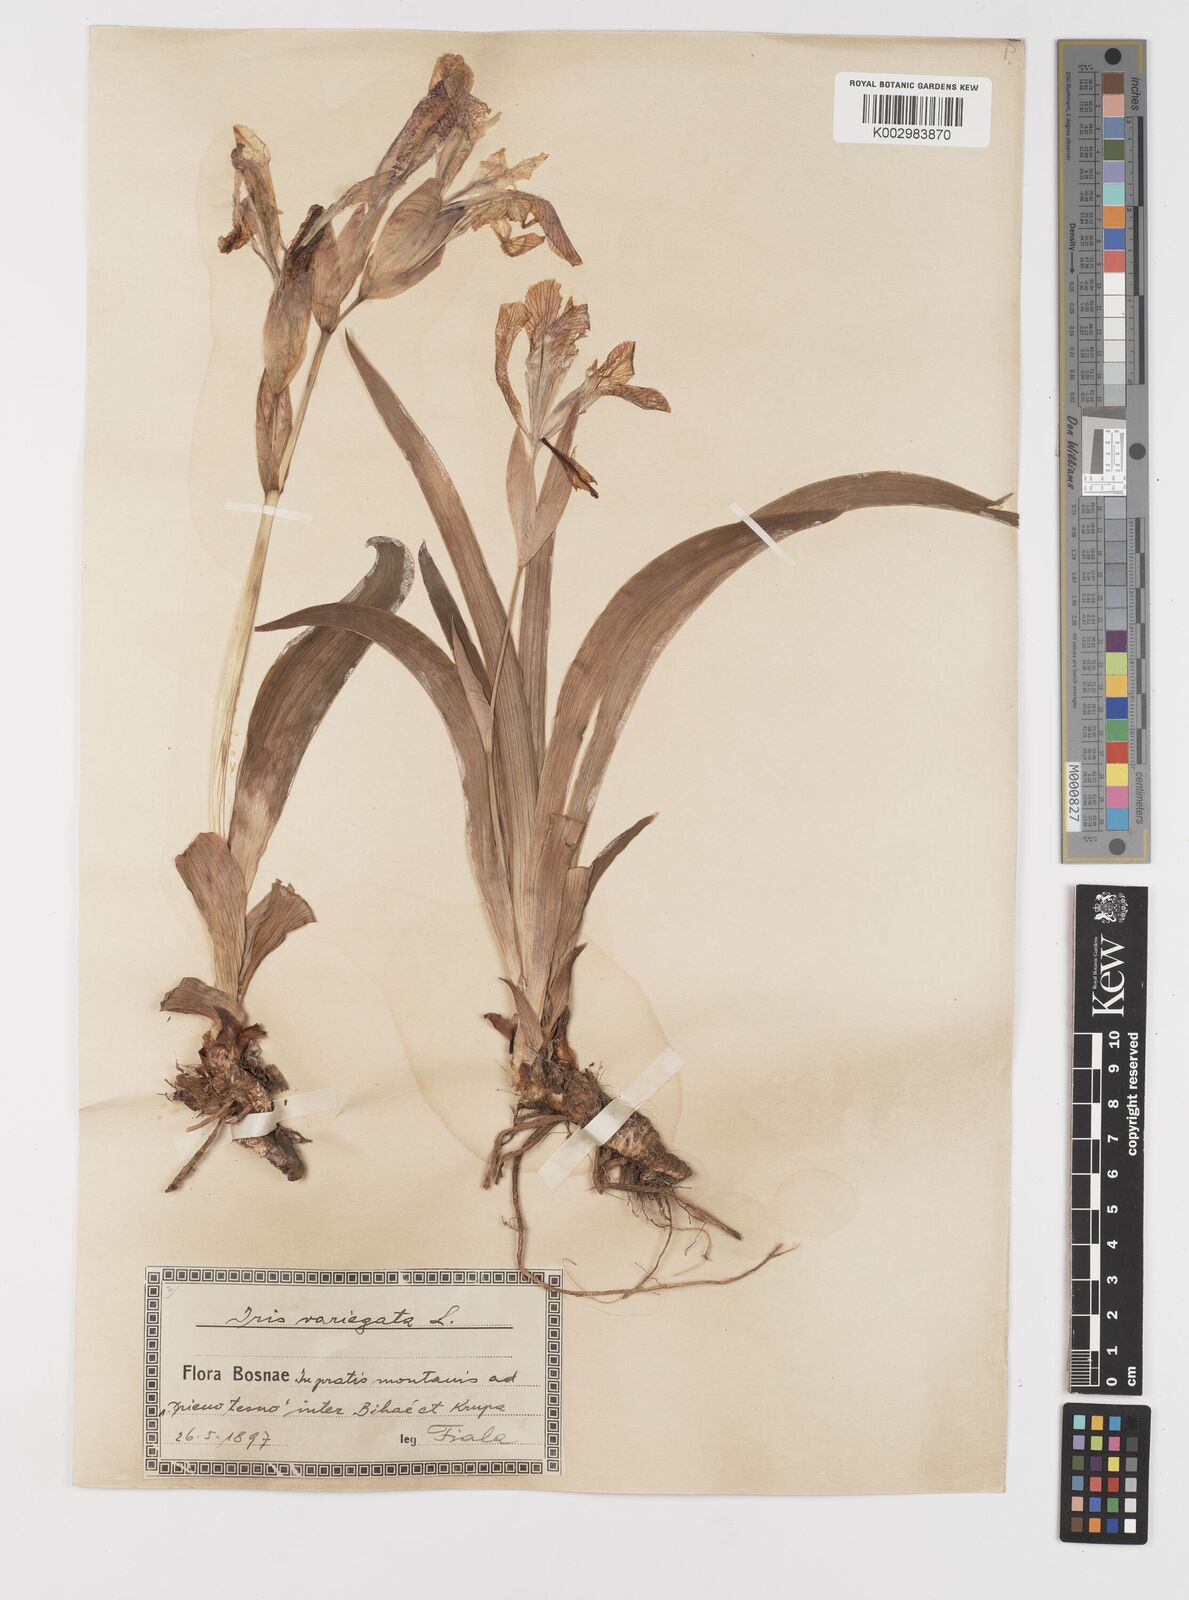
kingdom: Plantae
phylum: Tracheophyta
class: Liliopsida
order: Asparagales
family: Iridaceae
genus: Iris
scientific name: Iris variegata
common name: Hungarian iris
